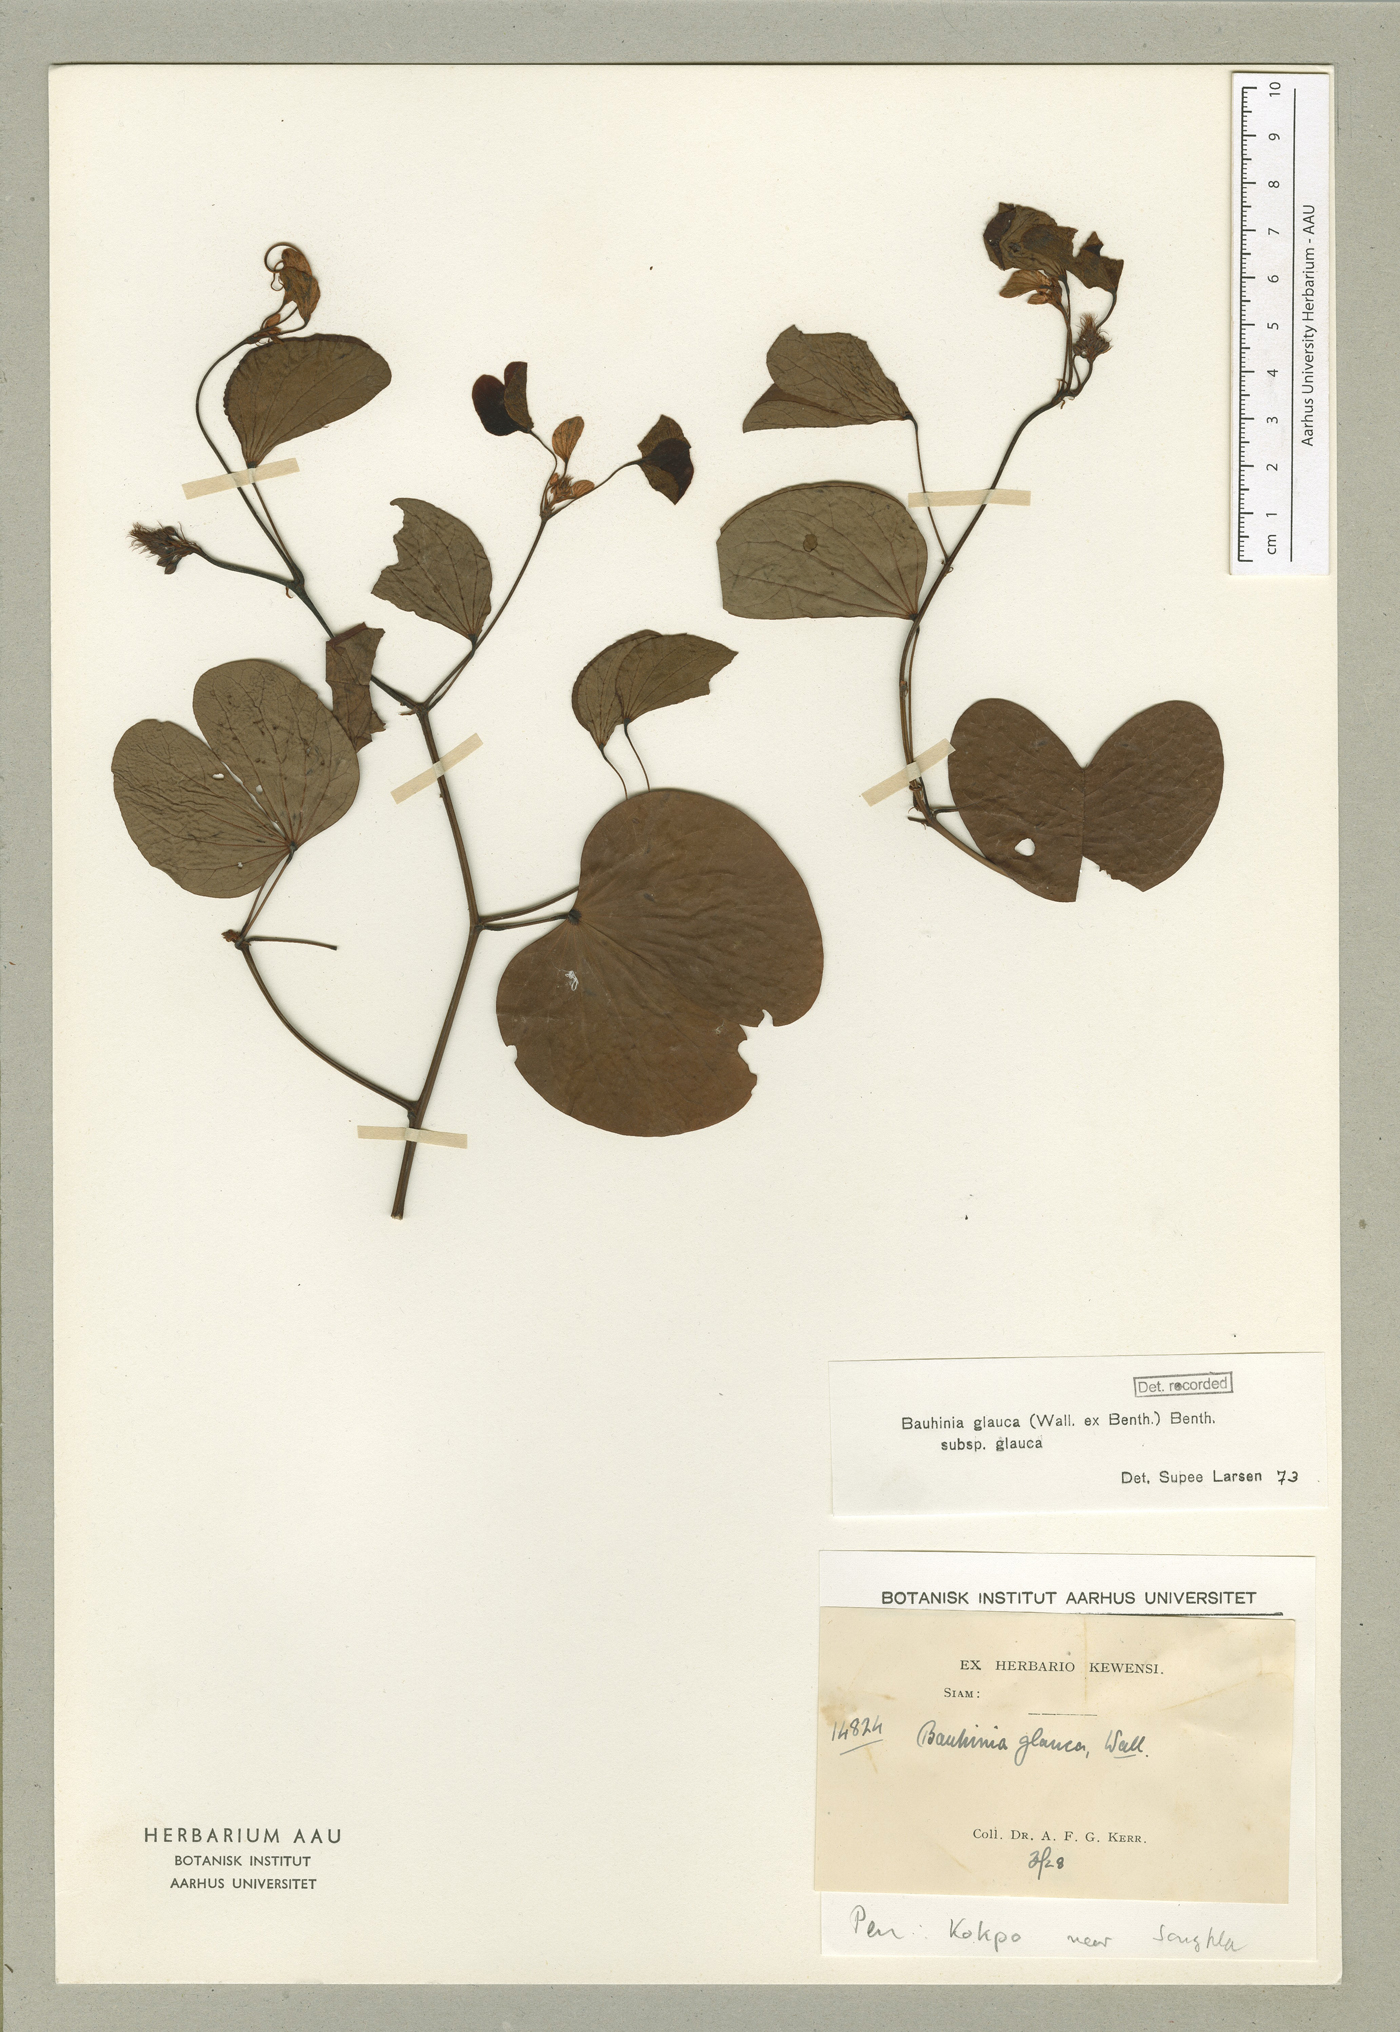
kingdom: Plantae
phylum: Tracheophyta
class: Magnoliopsida
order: Fabales
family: Fabaceae
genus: Cheniella
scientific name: Cheniella glauca
